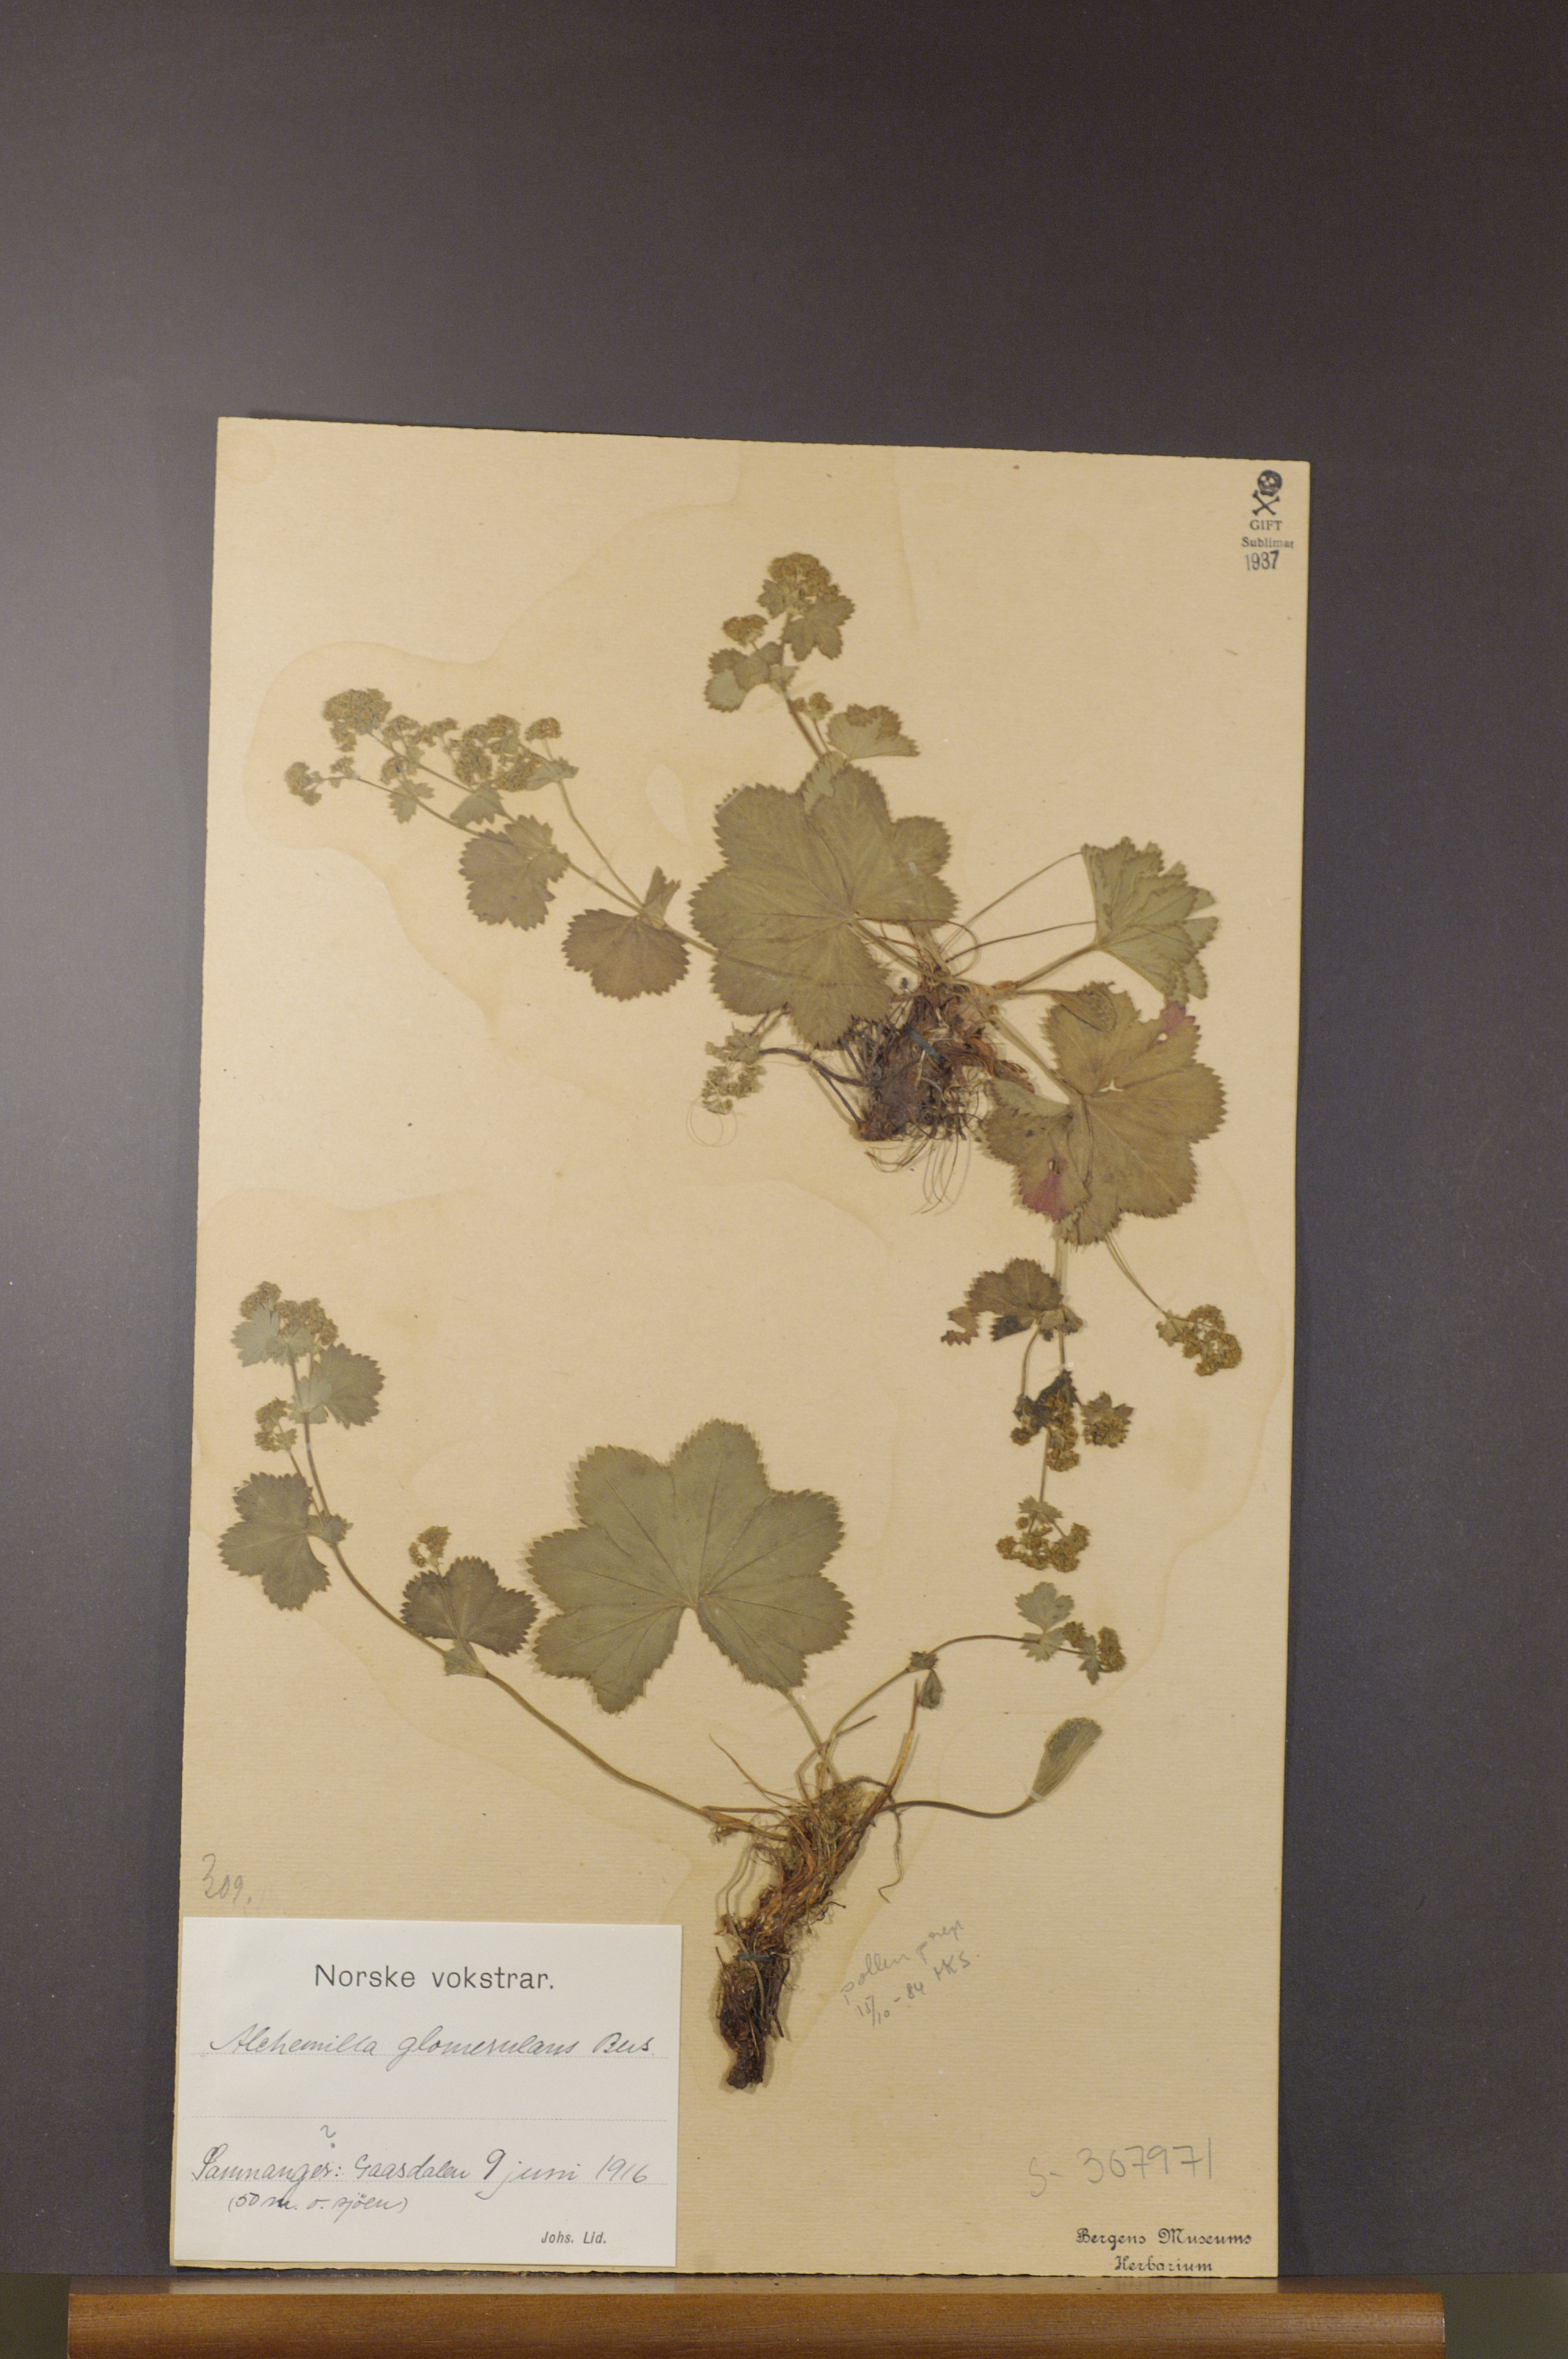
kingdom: Plantae
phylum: Tracheophyta
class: Magnoliopsida
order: Rosales
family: Rosaceae
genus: Alchemilla
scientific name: Alchemilla glomerulans
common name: Clustered lady's mantle
